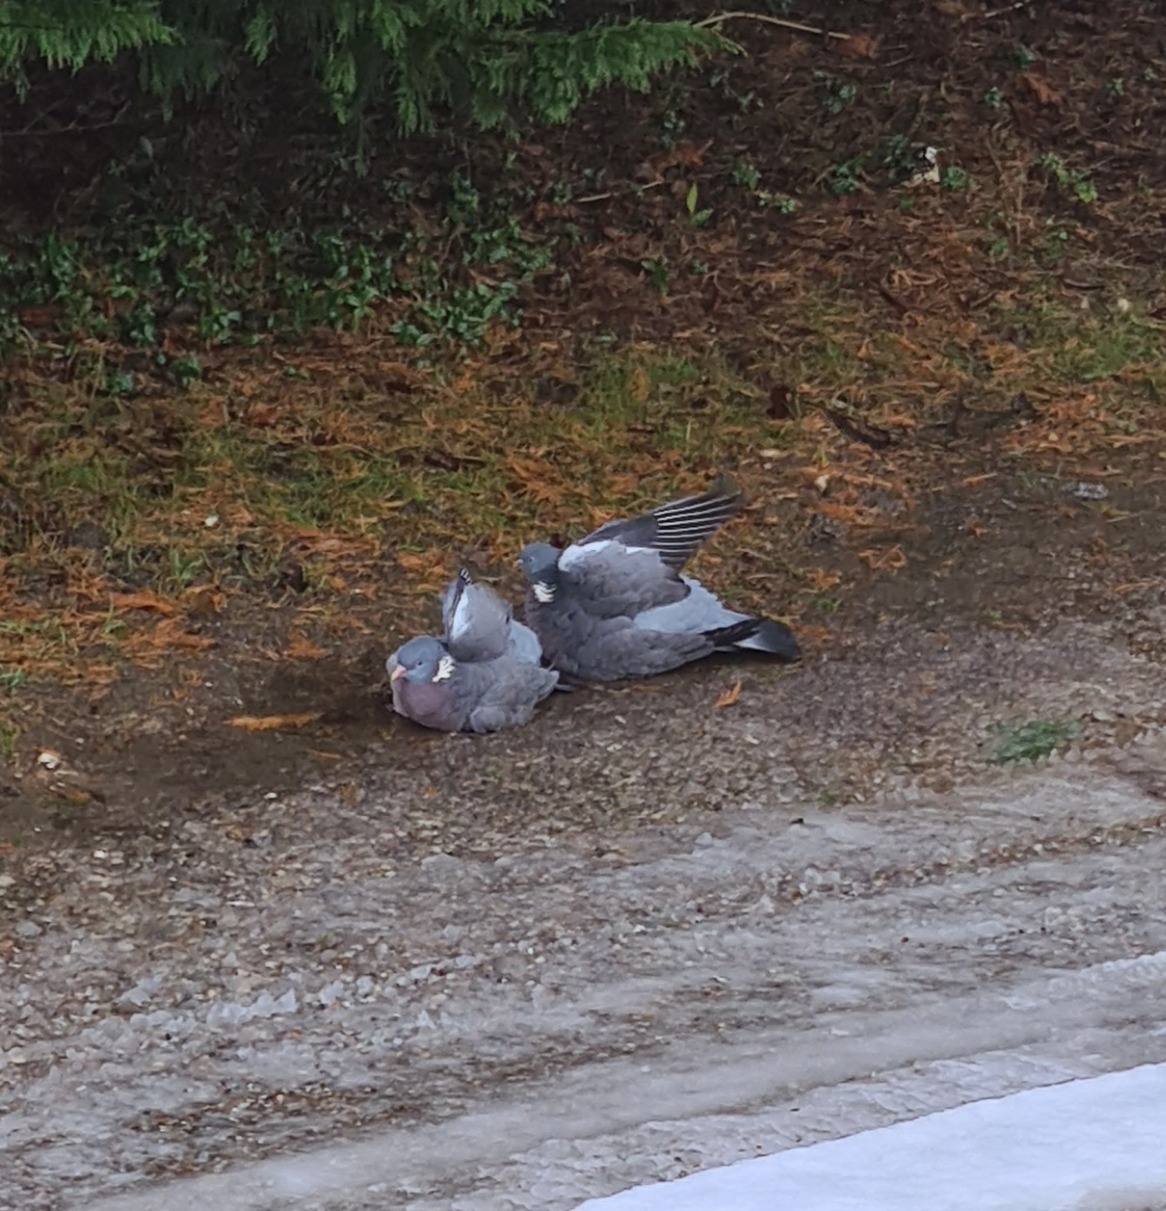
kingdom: Animalia
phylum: Chordata
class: Aves
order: Columbiformes
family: Columbidae
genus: Columba
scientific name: Columba palumbus
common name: Ringdue
